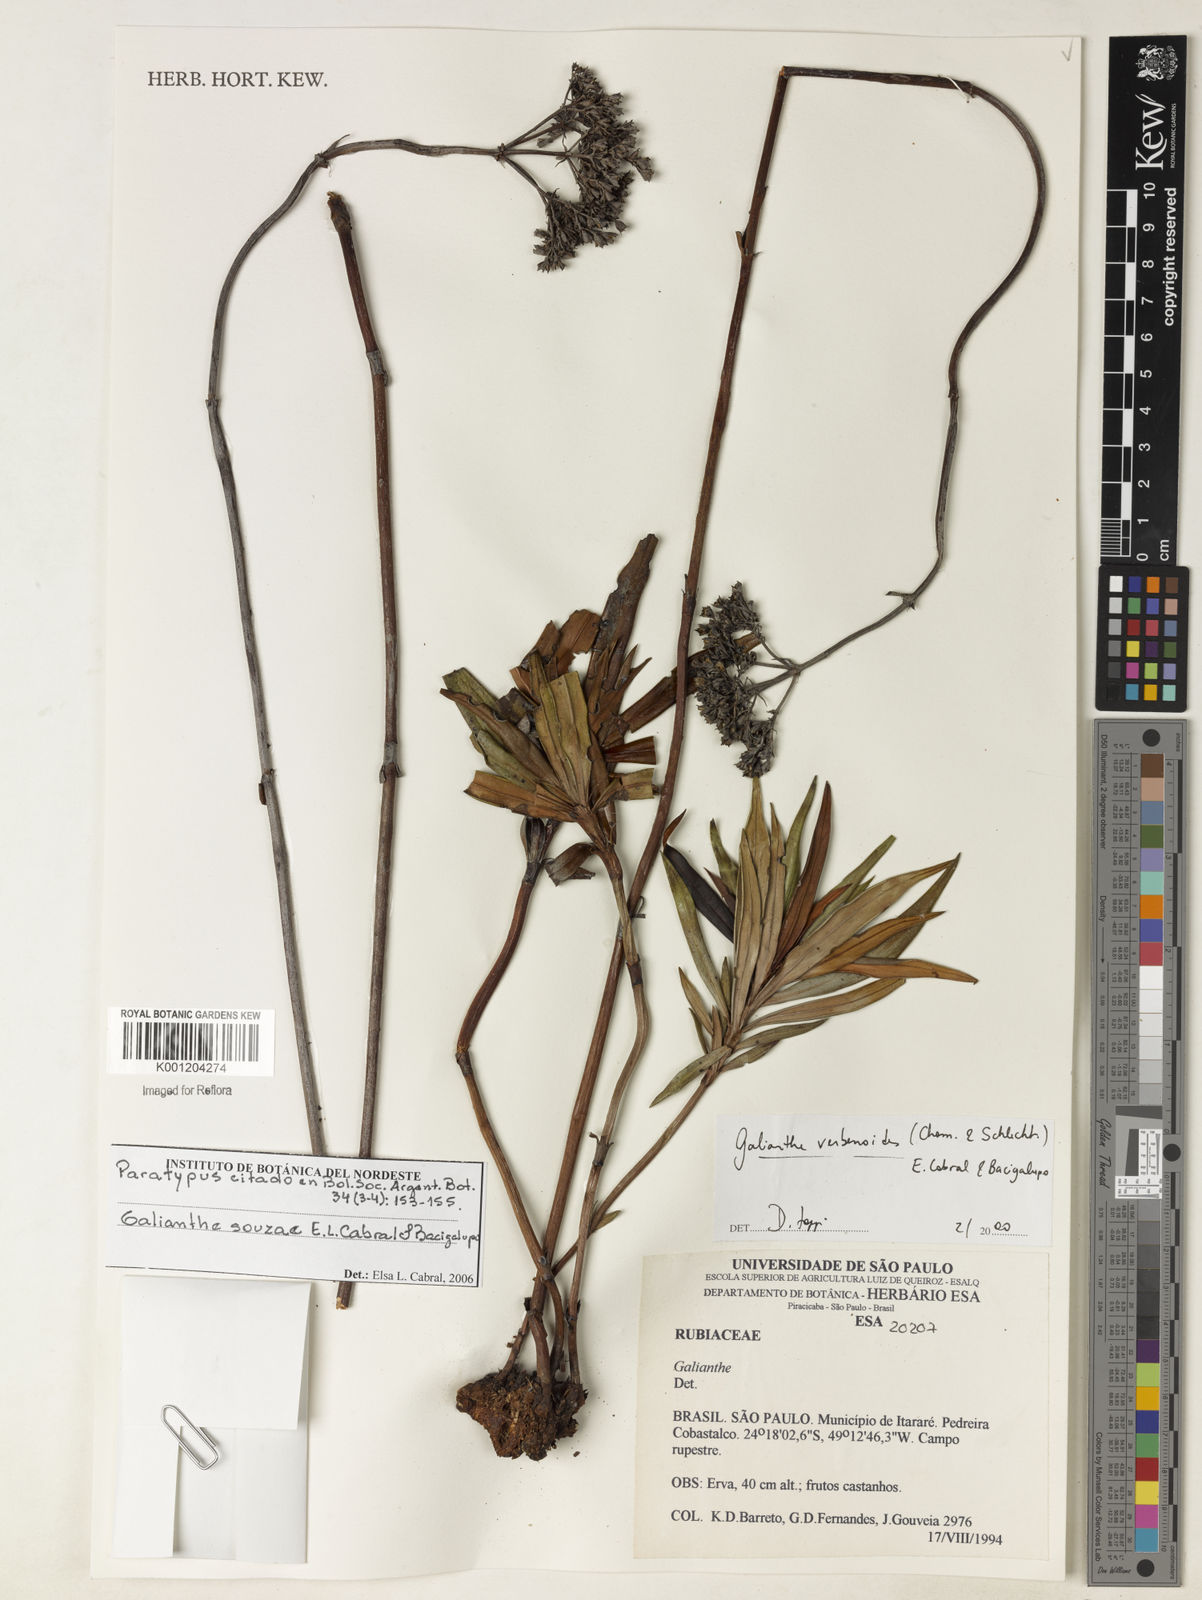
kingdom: Plantae
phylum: Tracheophyta
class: Magnoliopsida
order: Gentianales
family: Rubiaceae
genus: Galianthe
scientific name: Galianthe souzae
